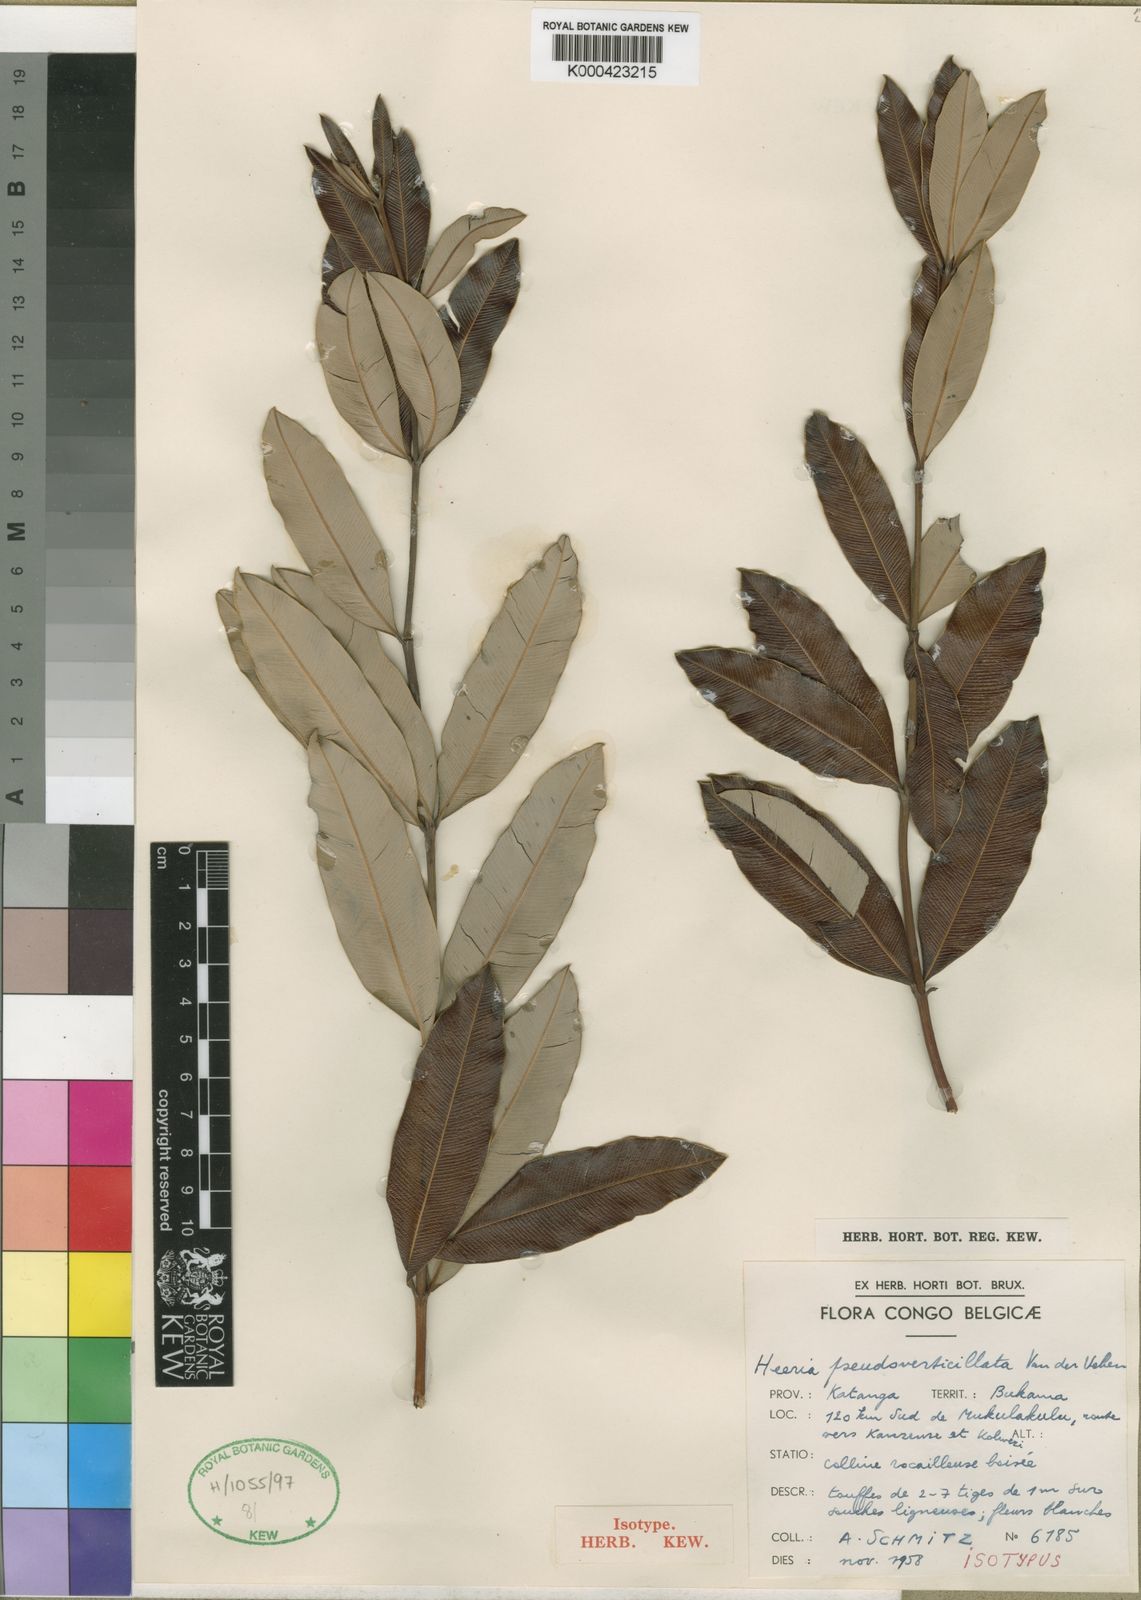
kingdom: Plantae
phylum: Tracheophyta
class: Magnoliopsida
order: Sapindales
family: Anacardiaceae
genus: Ozoroa
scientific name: Ozoroa pseudoverticillata
